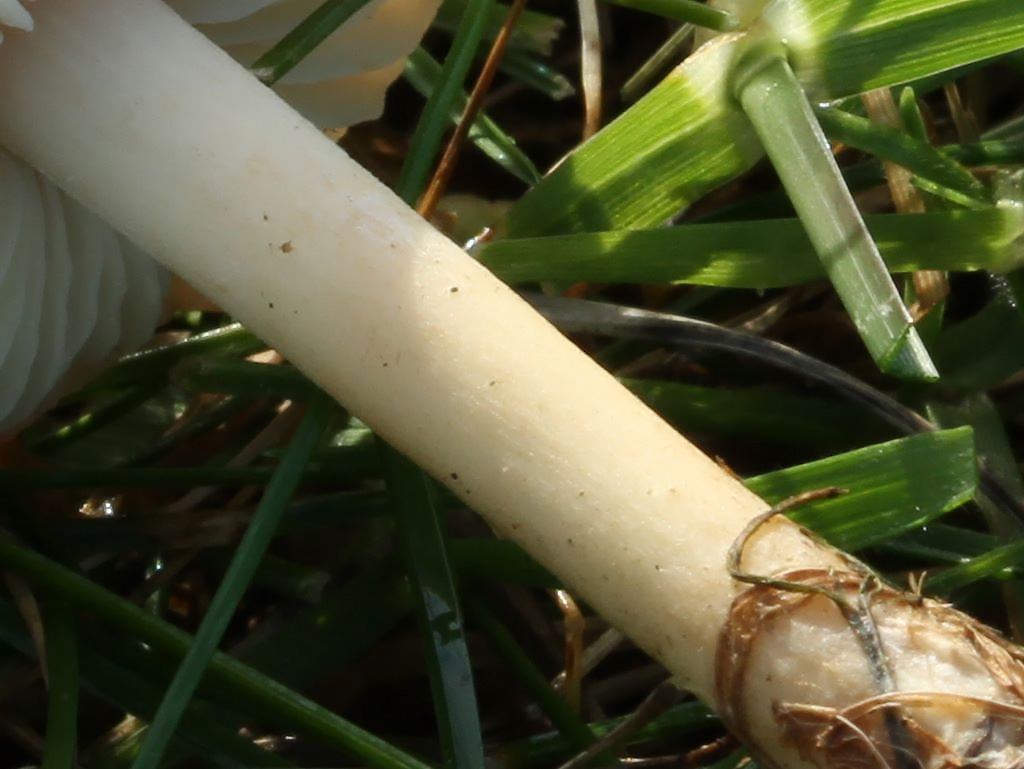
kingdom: Fungi
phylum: Basidiomycota
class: Agaricomycetes
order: Agaricales
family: Marasmiaceae
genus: Marasmius
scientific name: Marasmius oreades
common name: elledans-bruskhat
